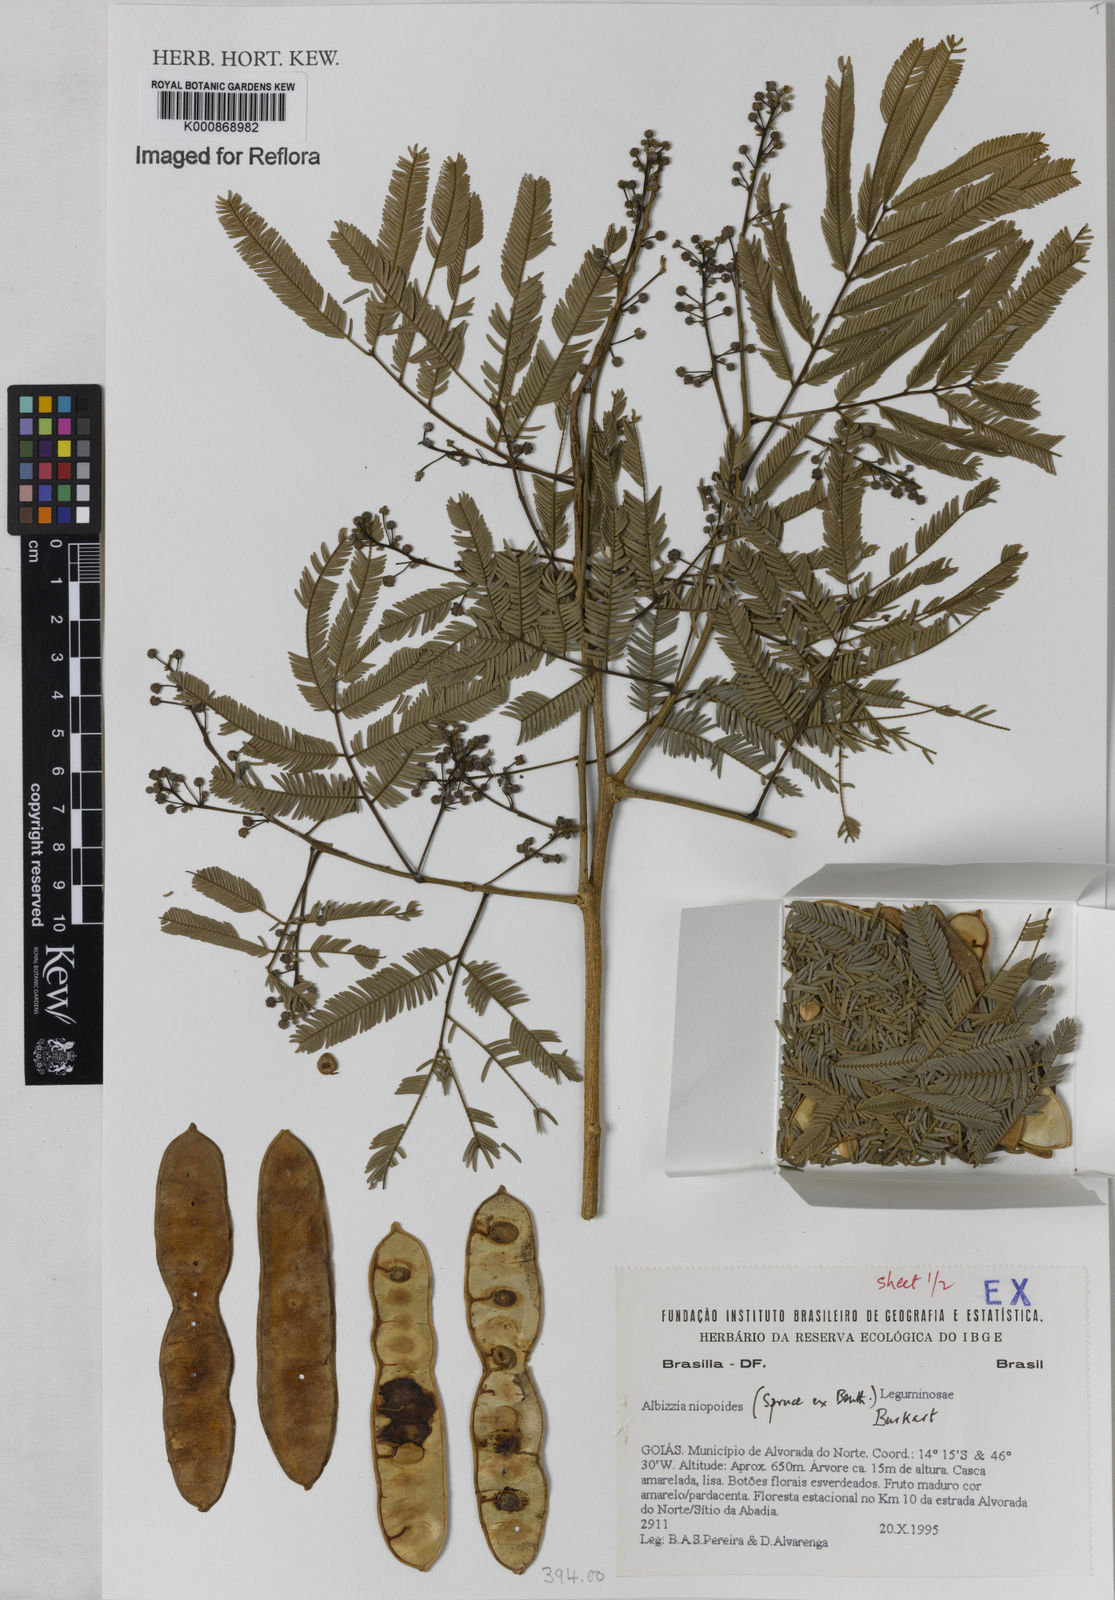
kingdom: Plantae
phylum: Tracheophyta
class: Magnoliopsida
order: Fabales
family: Fabaceae
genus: Albizia
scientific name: Albizia niopoides
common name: Silk tree
